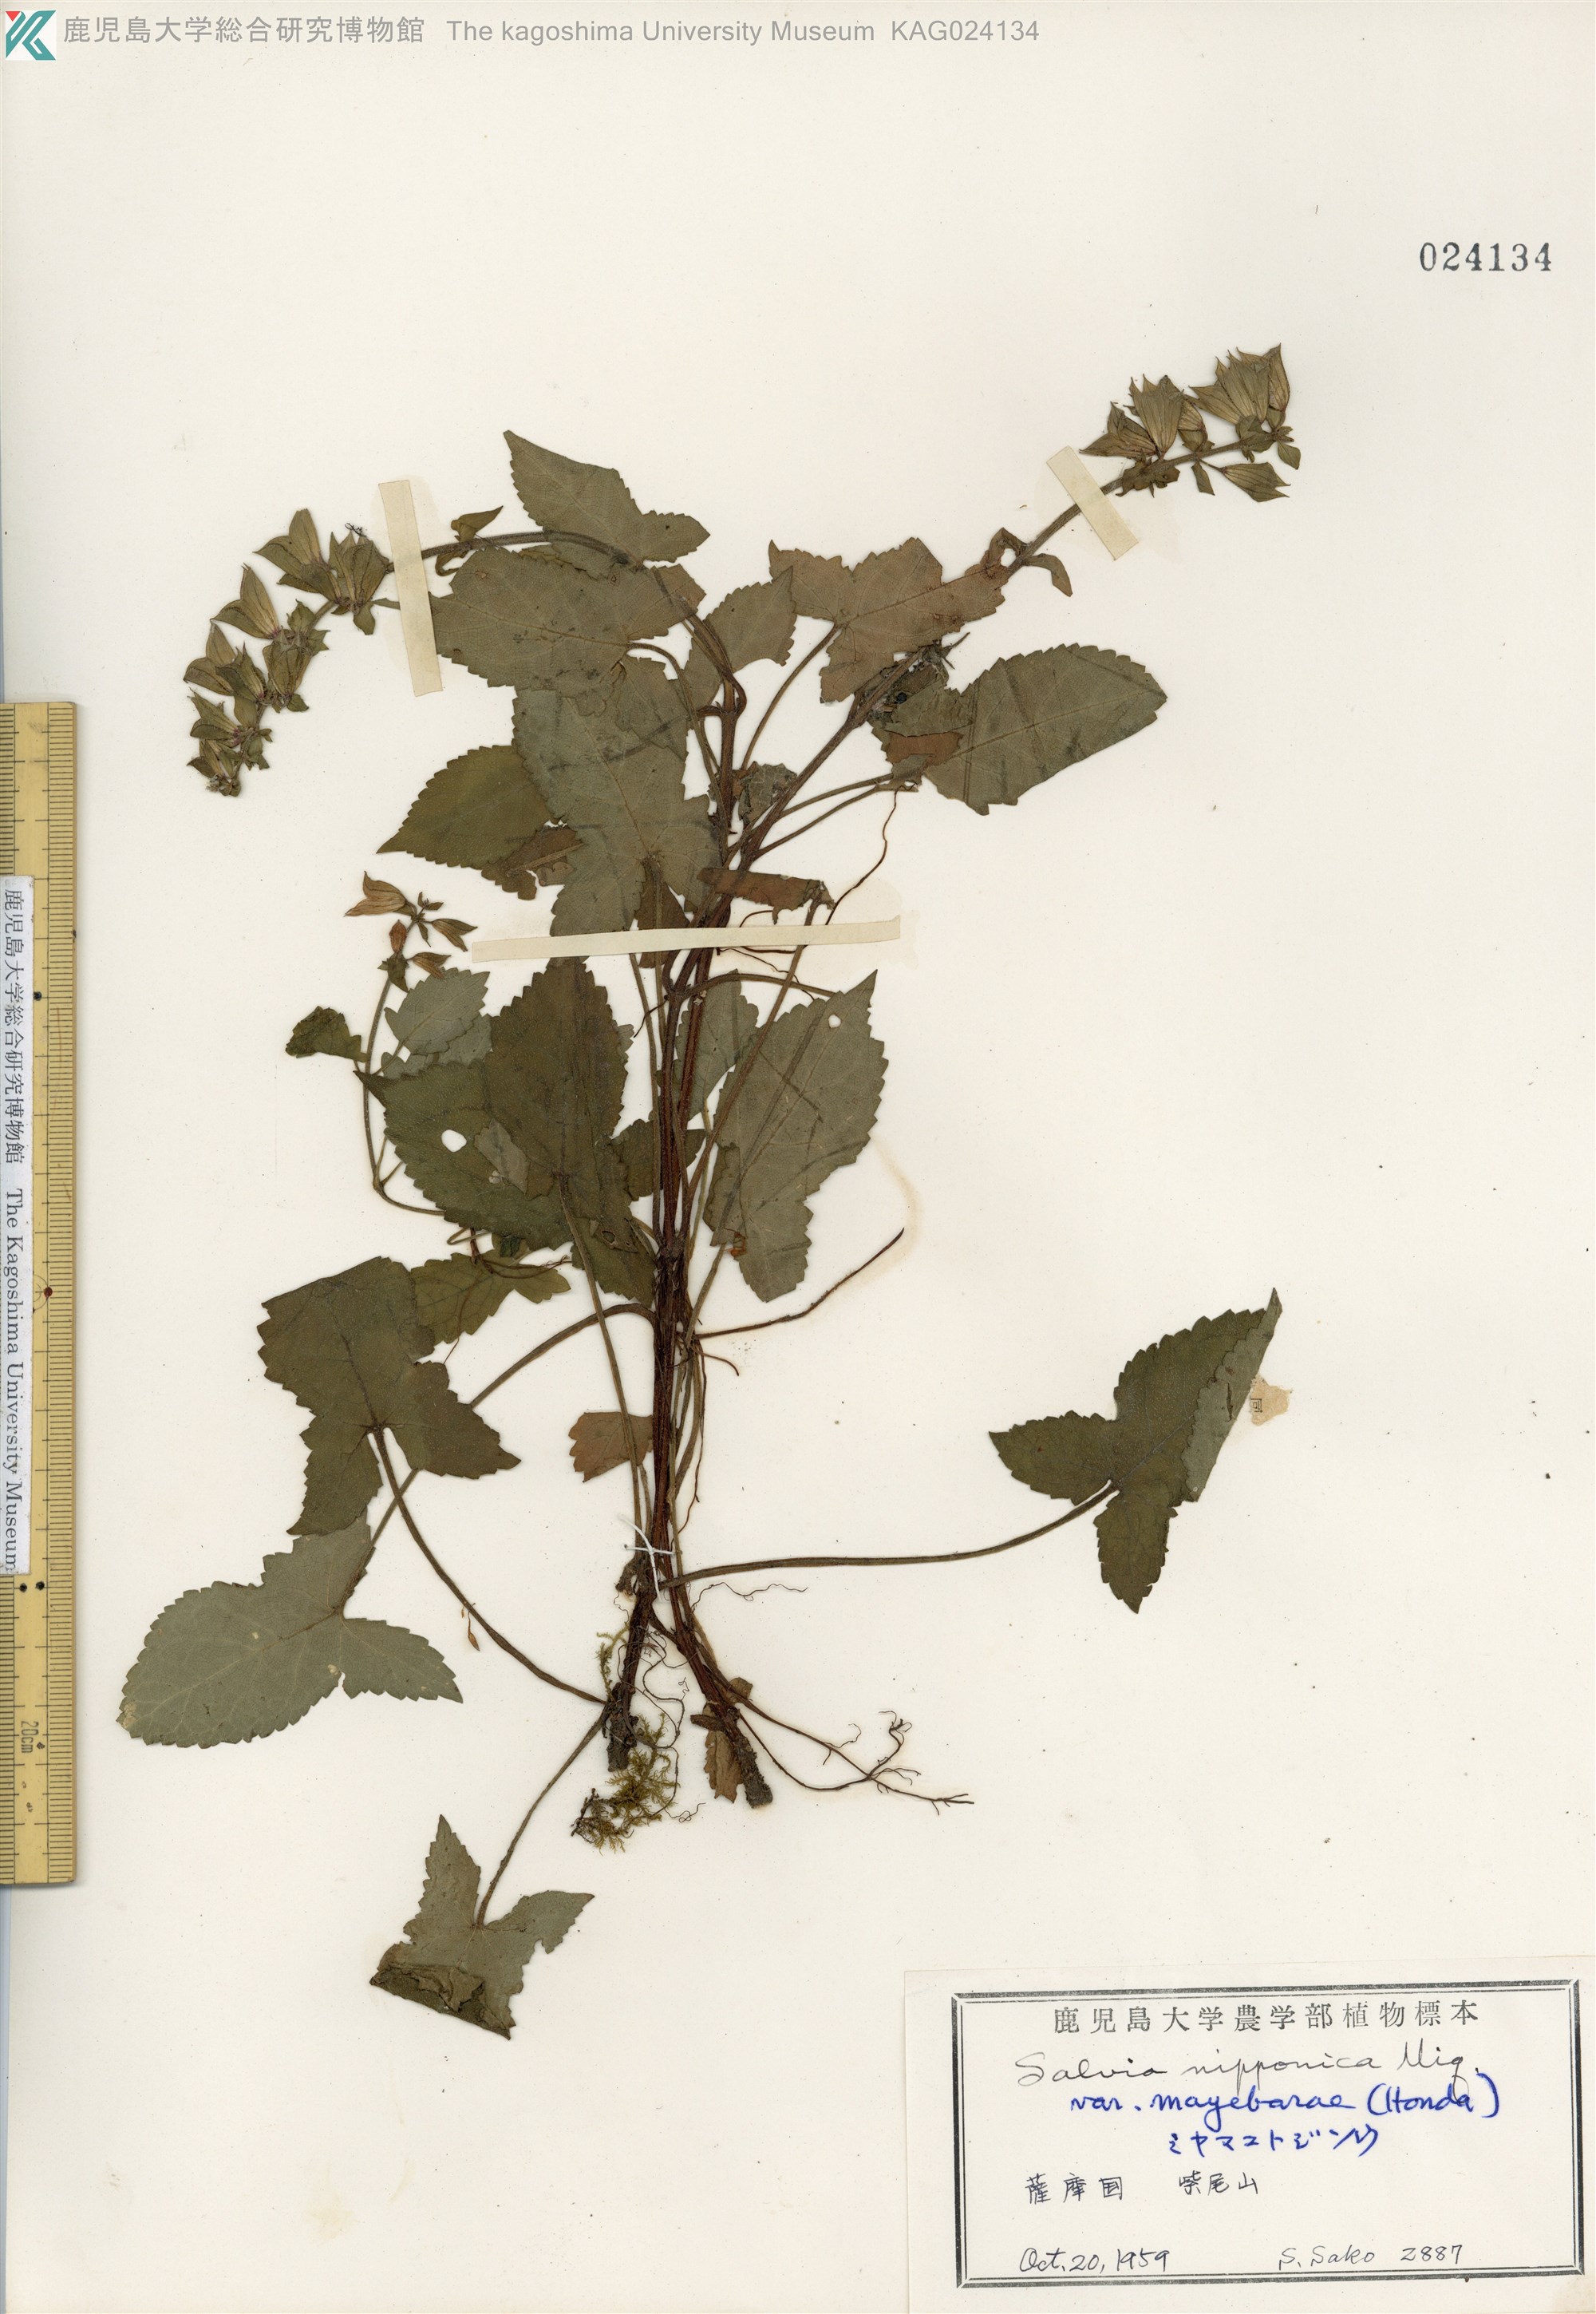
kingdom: Plantae
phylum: Tracheophyta
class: Magnoliopsida
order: Lamiales
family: Lamiaceae
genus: Salvia
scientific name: Salvia nipponica
